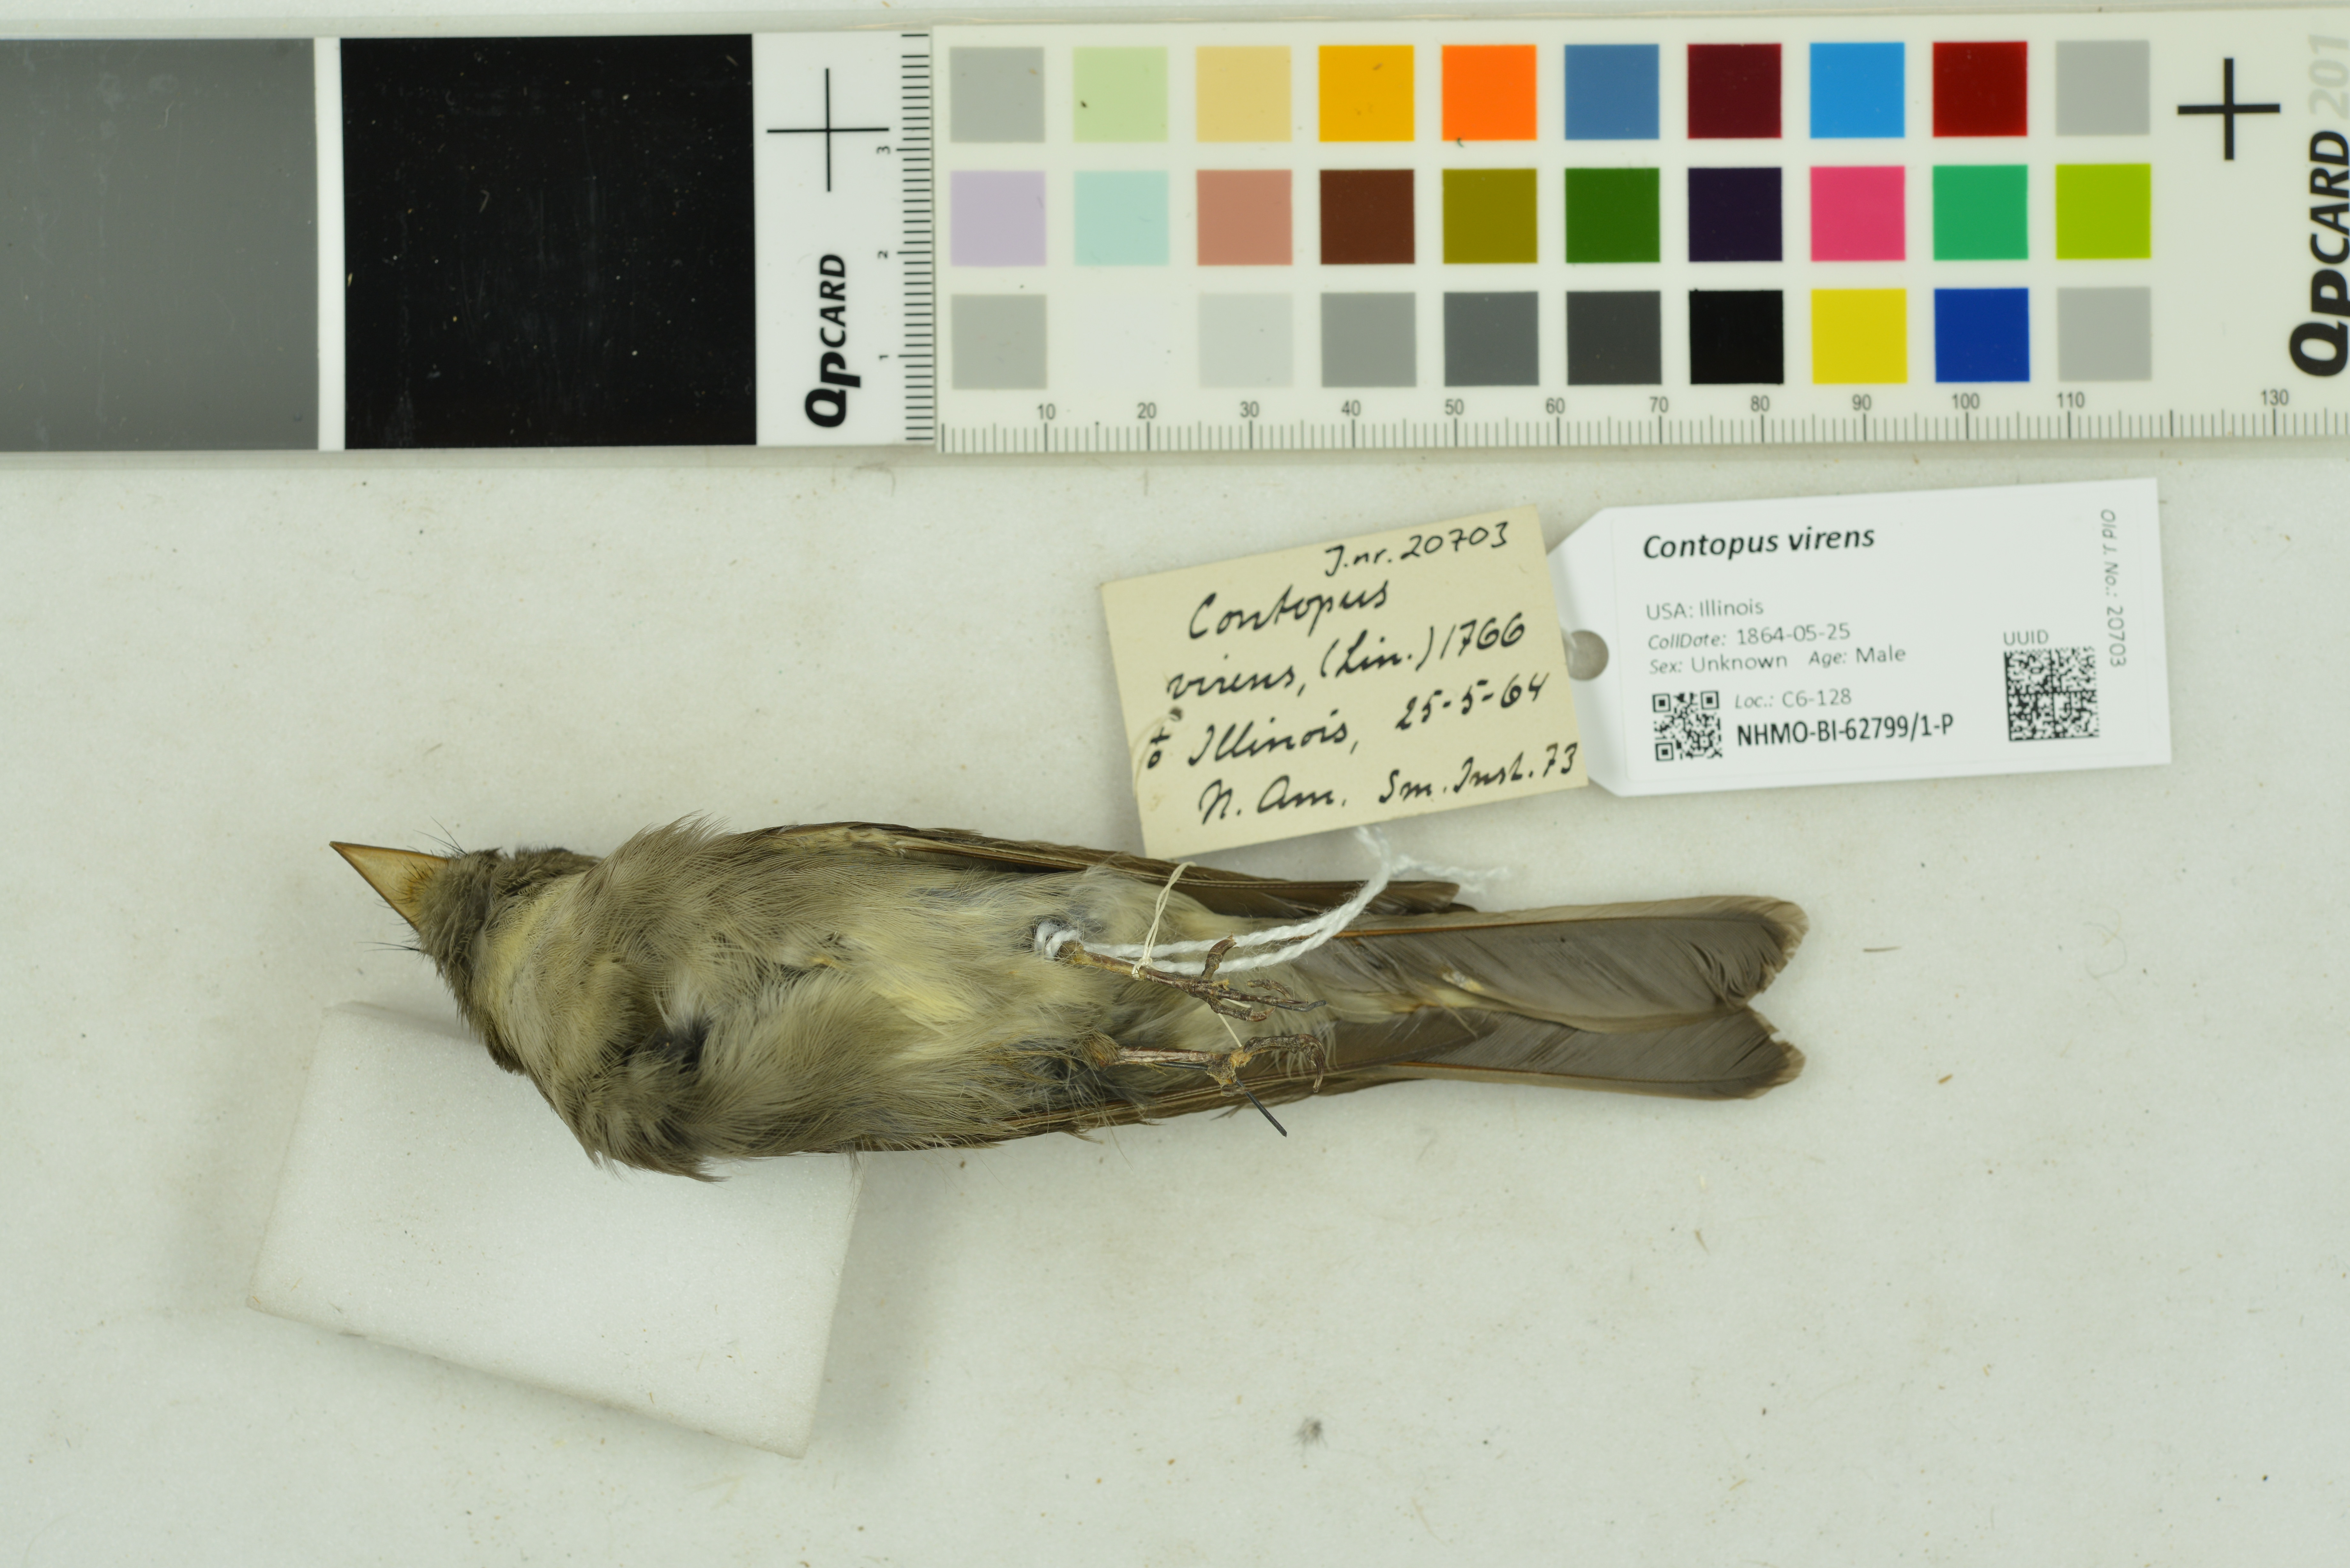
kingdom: Animalia
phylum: Chordata
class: Aves
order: Passeriformes
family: Tyrannidae
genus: Contopus
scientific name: Contopus virens
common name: Eastern wood-pewee
